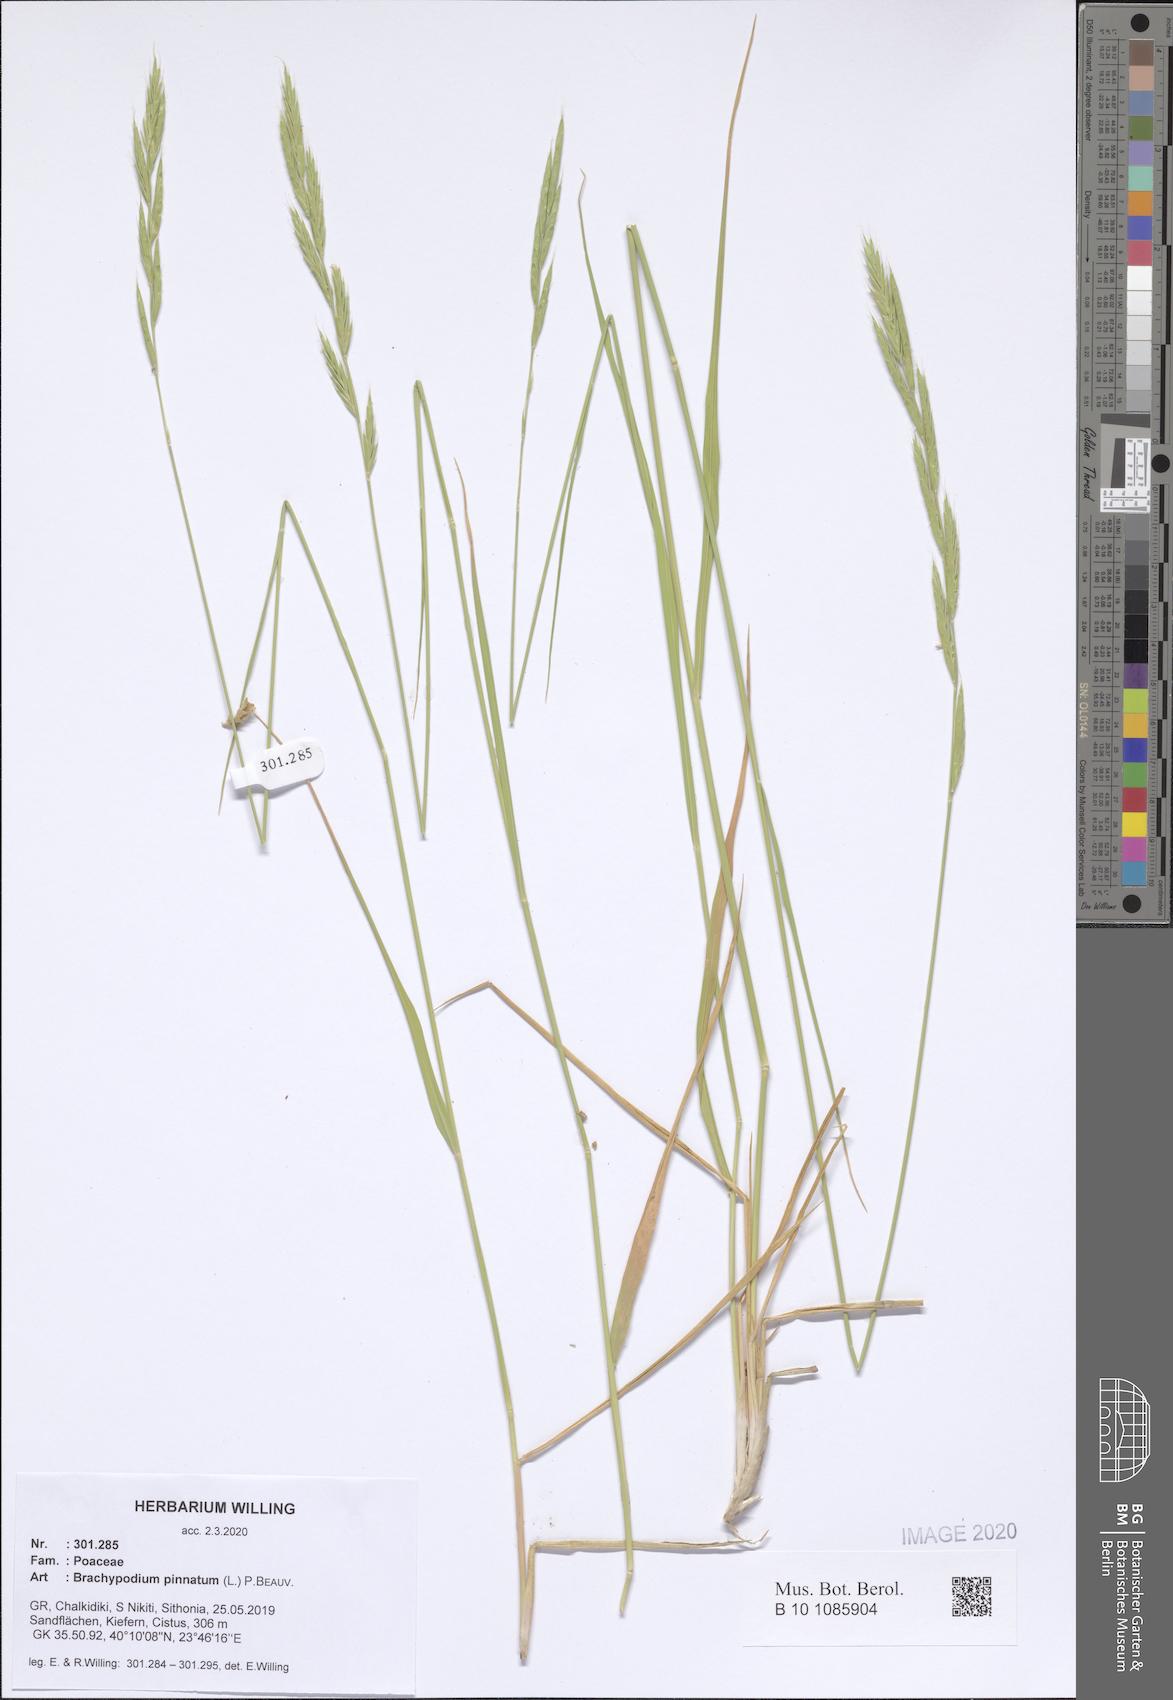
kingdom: Plantae
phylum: Tracheophyta
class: Liliopsida
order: Poales
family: Poaceae
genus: Brachypodium
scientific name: Brachypodium pinnatum
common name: Tor grass
